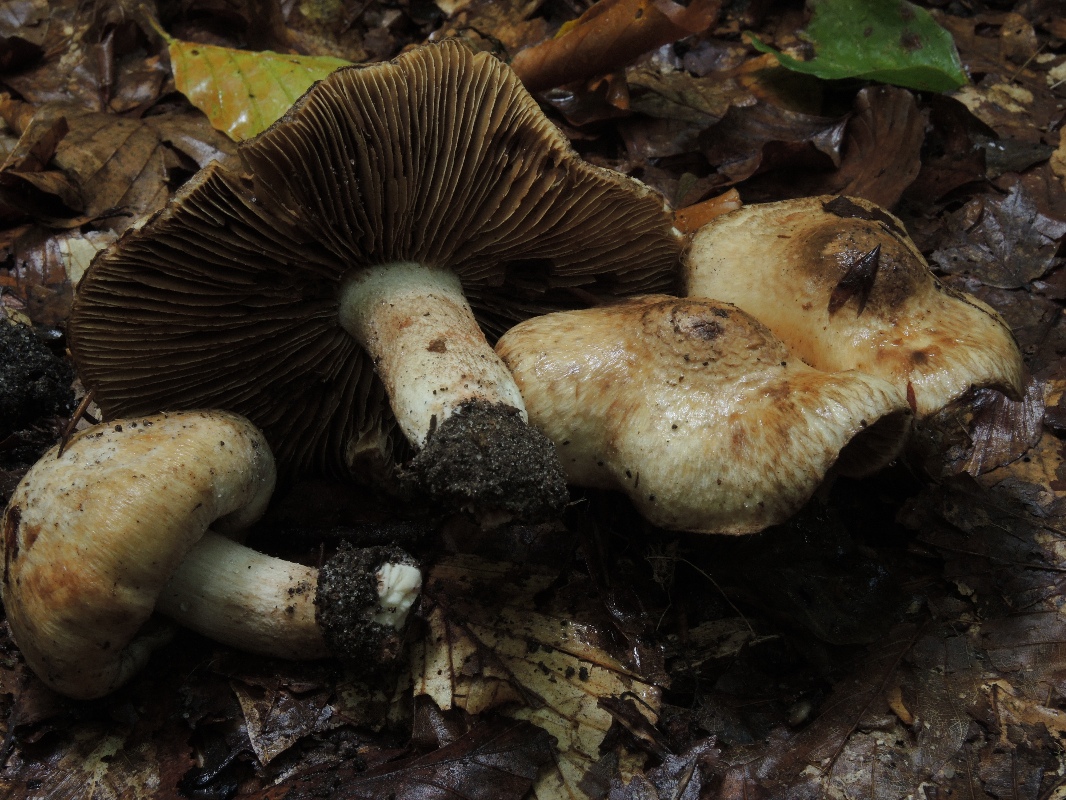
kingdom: Fungi
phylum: Basidiomycota
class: Agaricomycetes
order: Agaricales
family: Inocybaceae
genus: Inosperma
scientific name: Inosperma bongardii
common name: Bongards trævlhat
